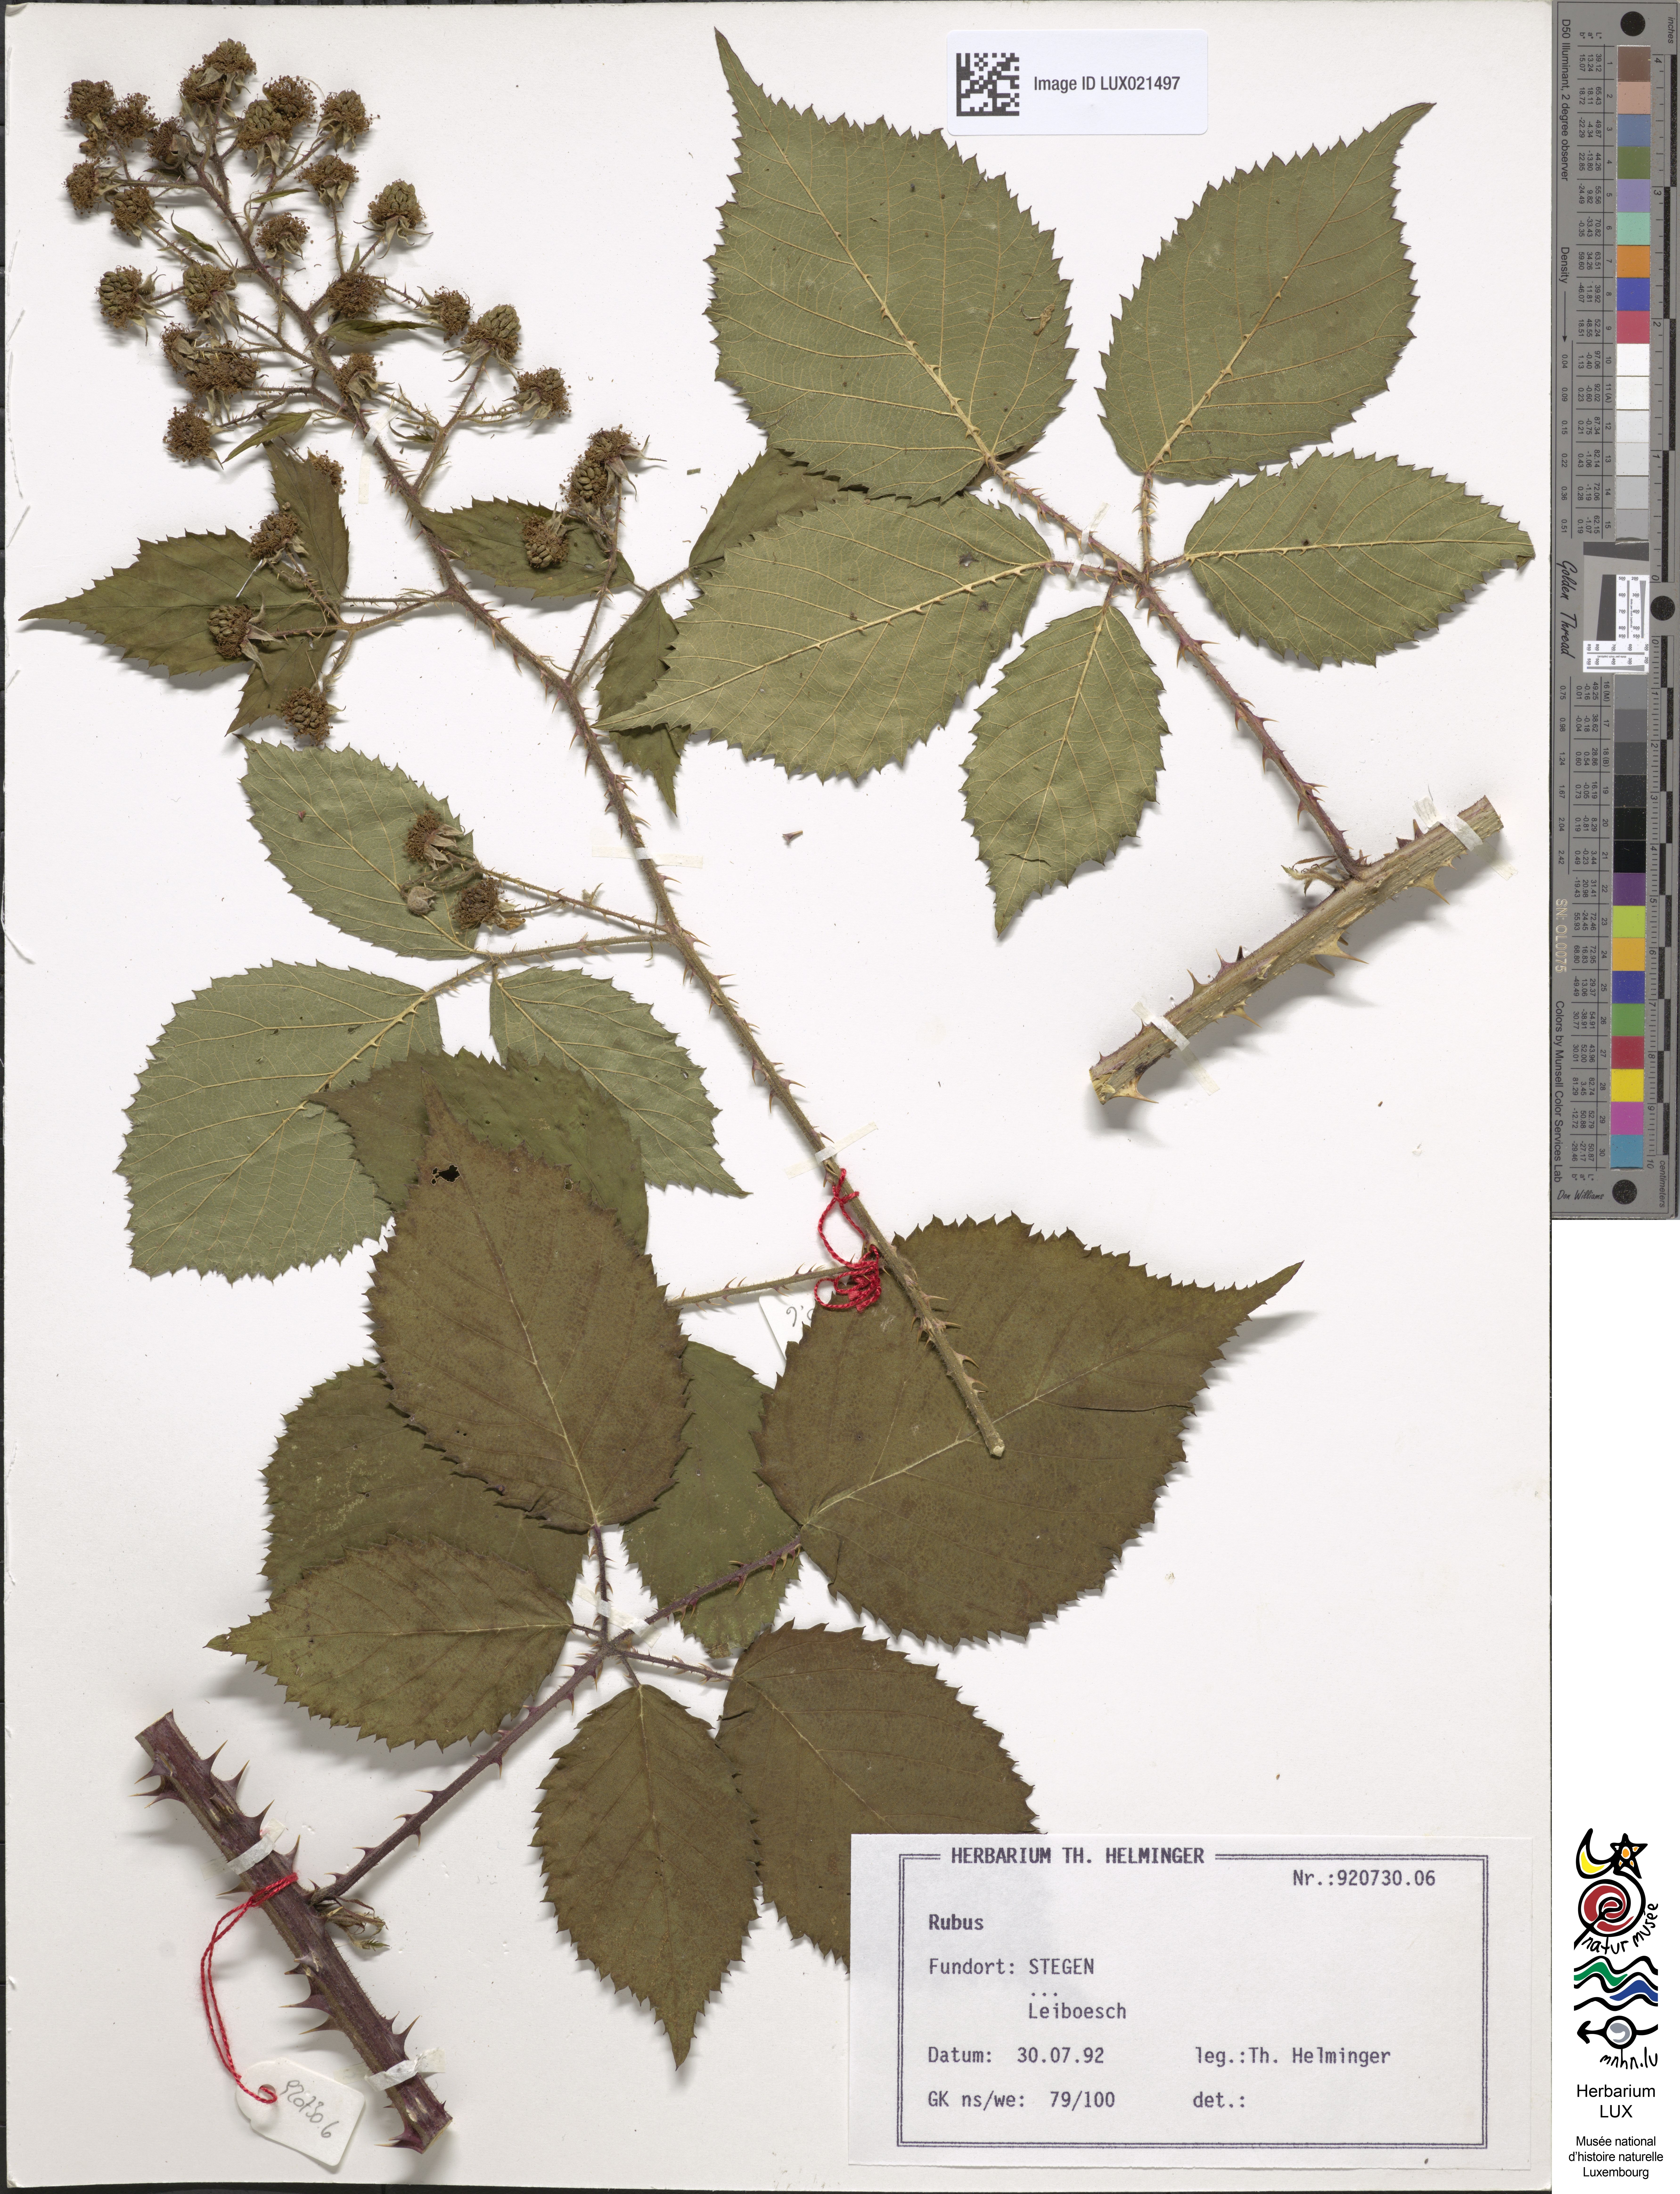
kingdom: Plantae
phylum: Tracheophyta
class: Magnoliopsida
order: Rosales
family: Rosaceae
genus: Rubus
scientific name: Rubus
